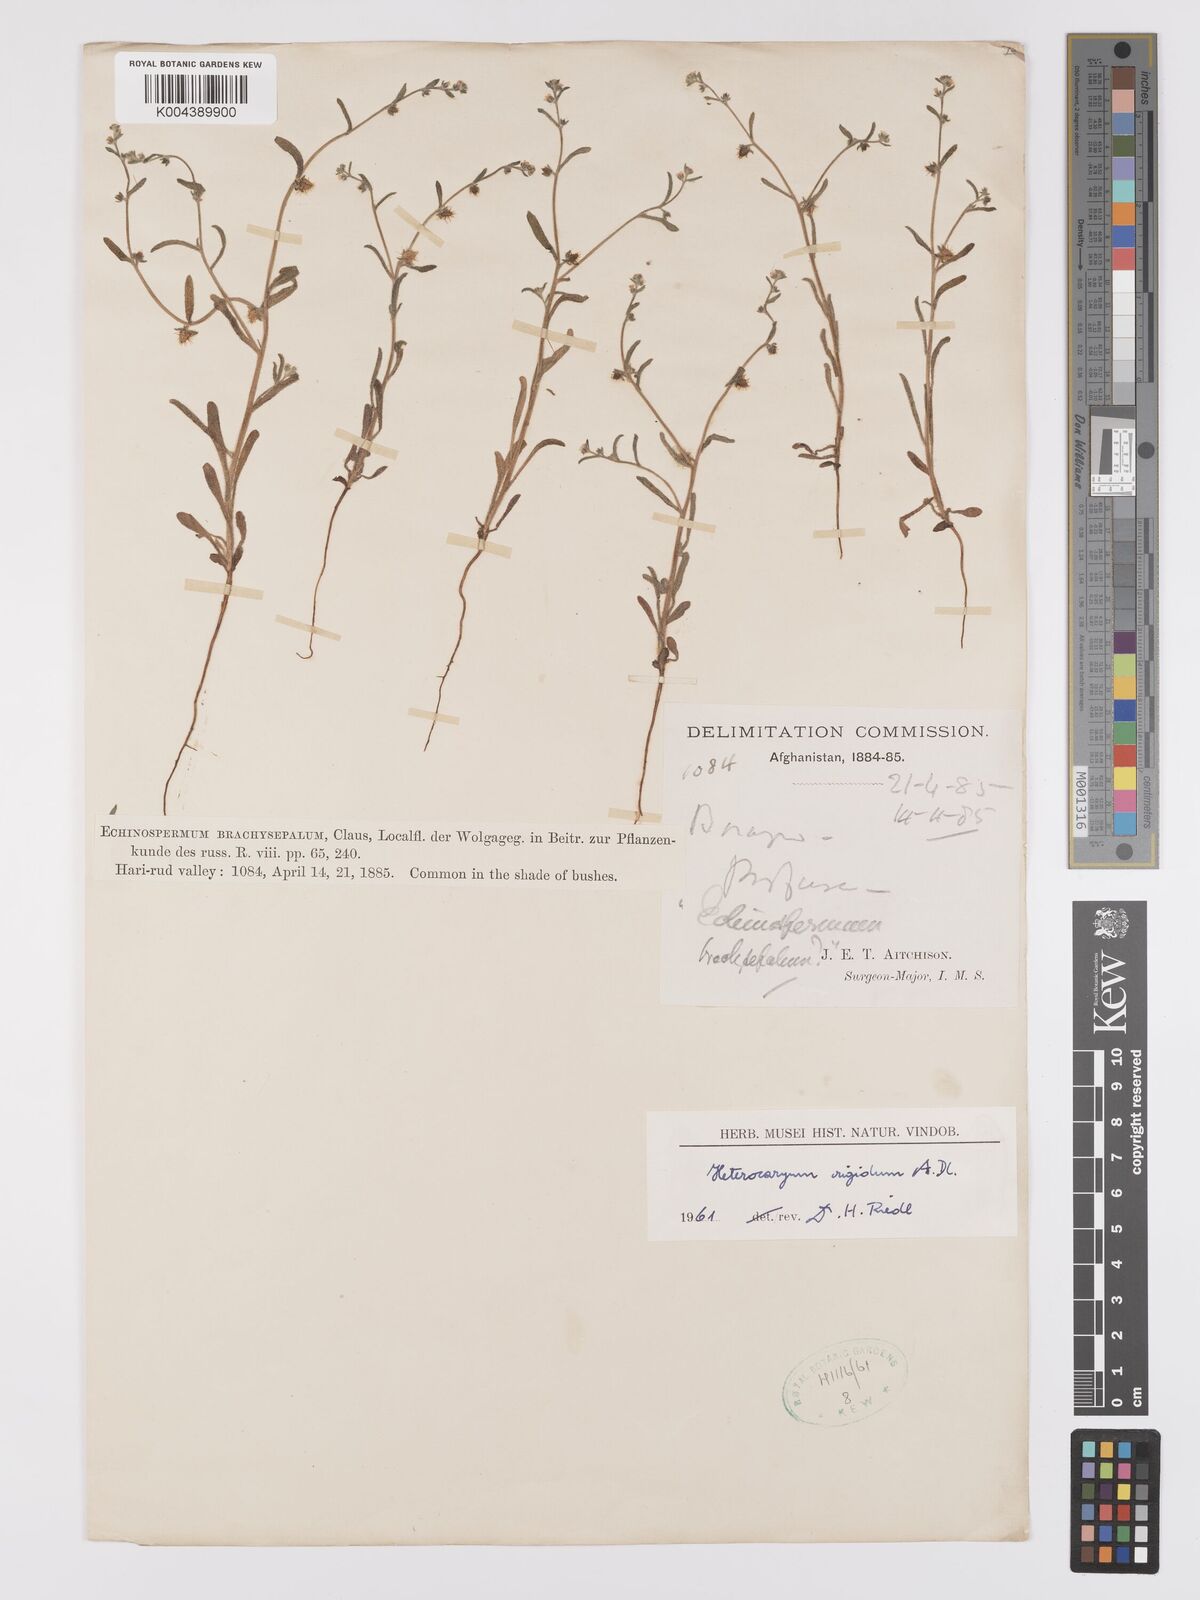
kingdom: Plantae
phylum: Tracheophyta
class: Magnoliopsida
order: Boraginales
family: Boraginaceae
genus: Lappula
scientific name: Lappula microcarpa
